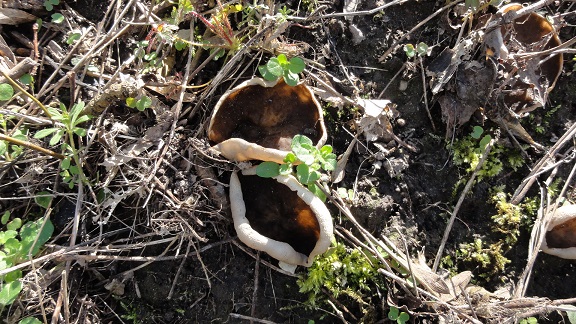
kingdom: Fungi
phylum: Ascomycota
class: Pezizomycetes
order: Pezizales
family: Morchellaceae
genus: Disciotis
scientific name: Disciotis venosa
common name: klor-bægermorkel
